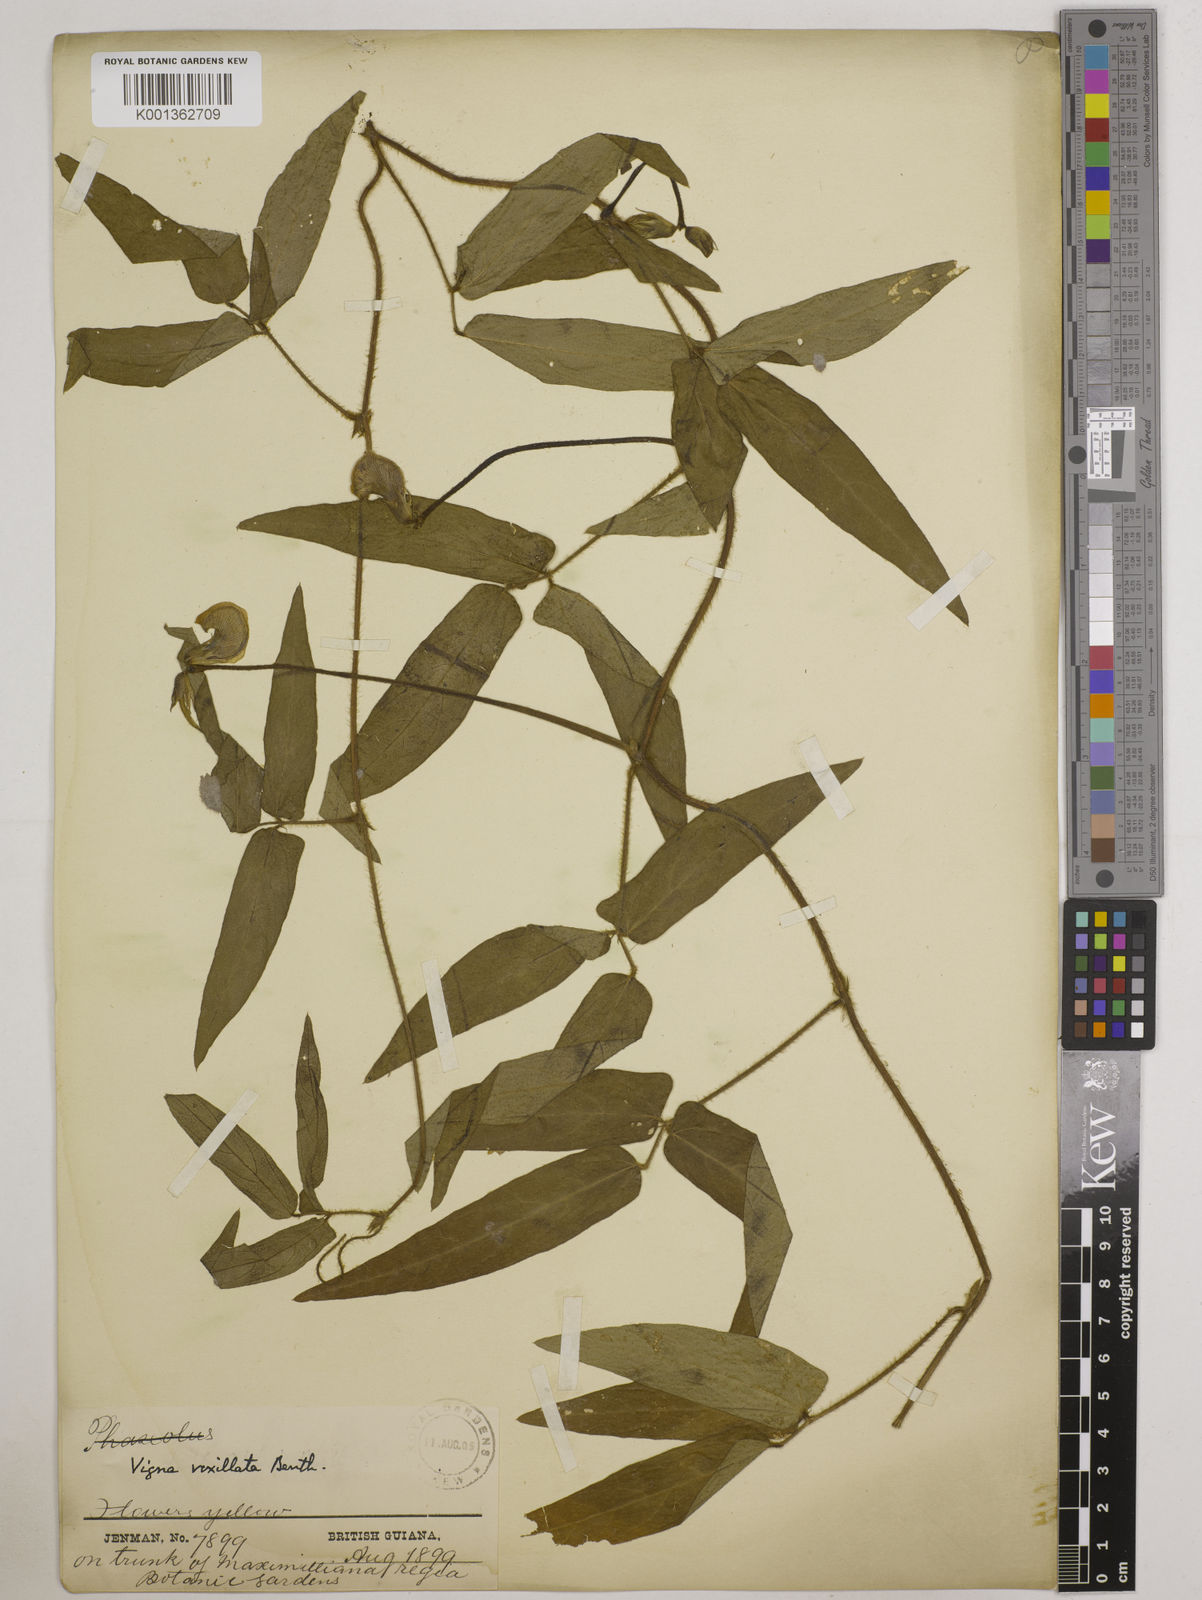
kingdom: Plantae
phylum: Tracheophyta
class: Magnoliopsida
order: Fabales
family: Fabaceae
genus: Vigna
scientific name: Vigna vexillata
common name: Zombi pea
